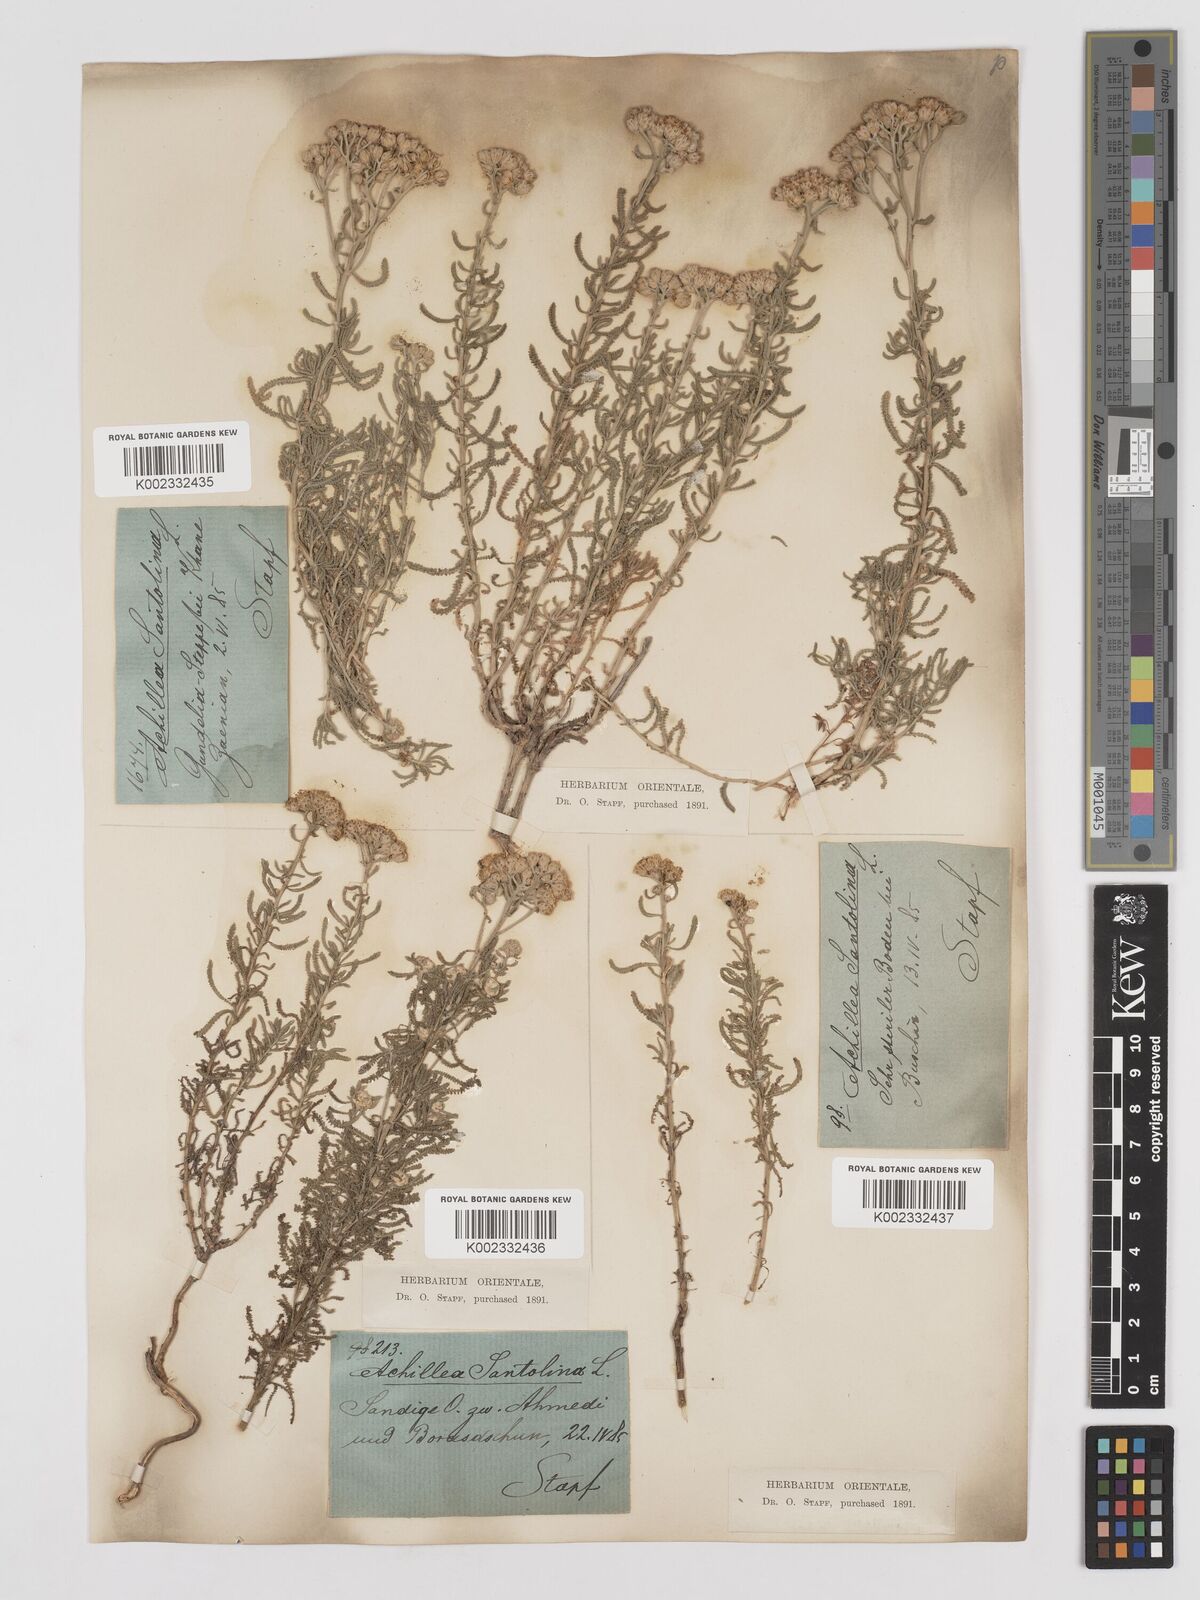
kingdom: Plantae
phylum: Tracheophyta
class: Magnoliopsida
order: Asterales
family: Asteraceae
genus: Achillea
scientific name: Achillea tenuifolia
